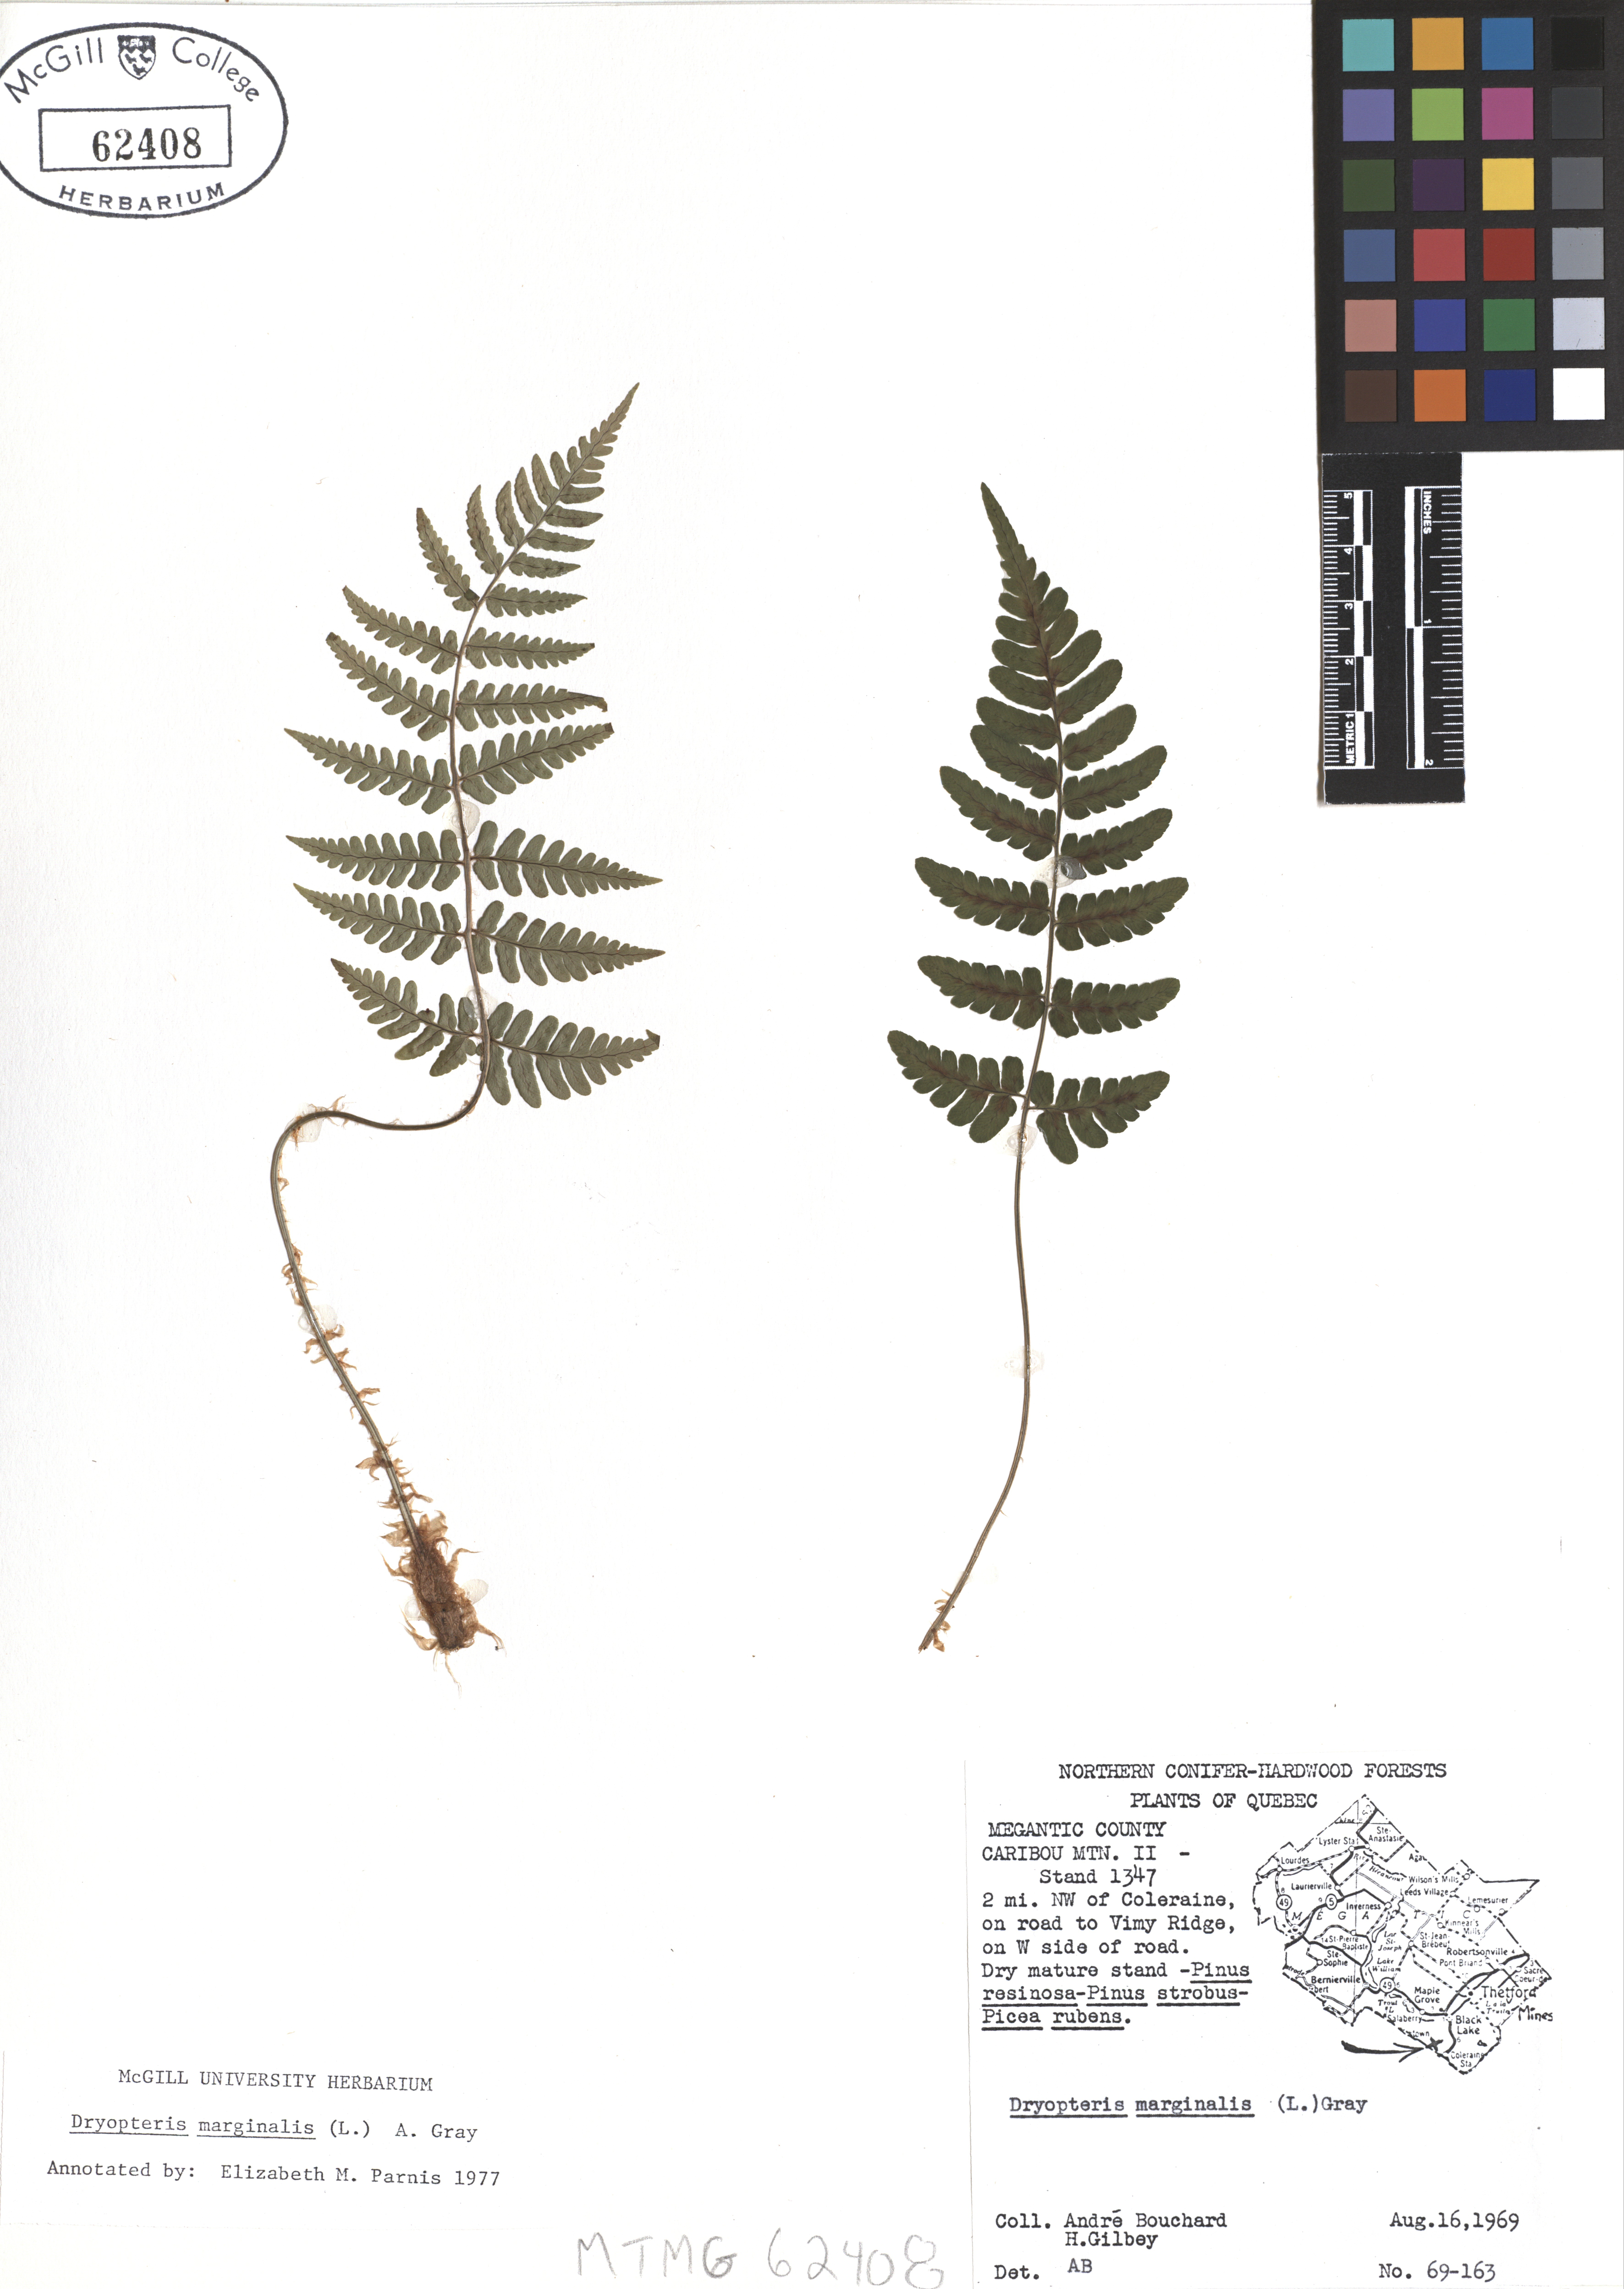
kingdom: Plantae
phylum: Tracheophyta
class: Polypodiopsida
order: Polypodiales
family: Dryopteridaceae
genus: Dryopteris
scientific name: Dryopteris marginalis
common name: Marginal wood fern
